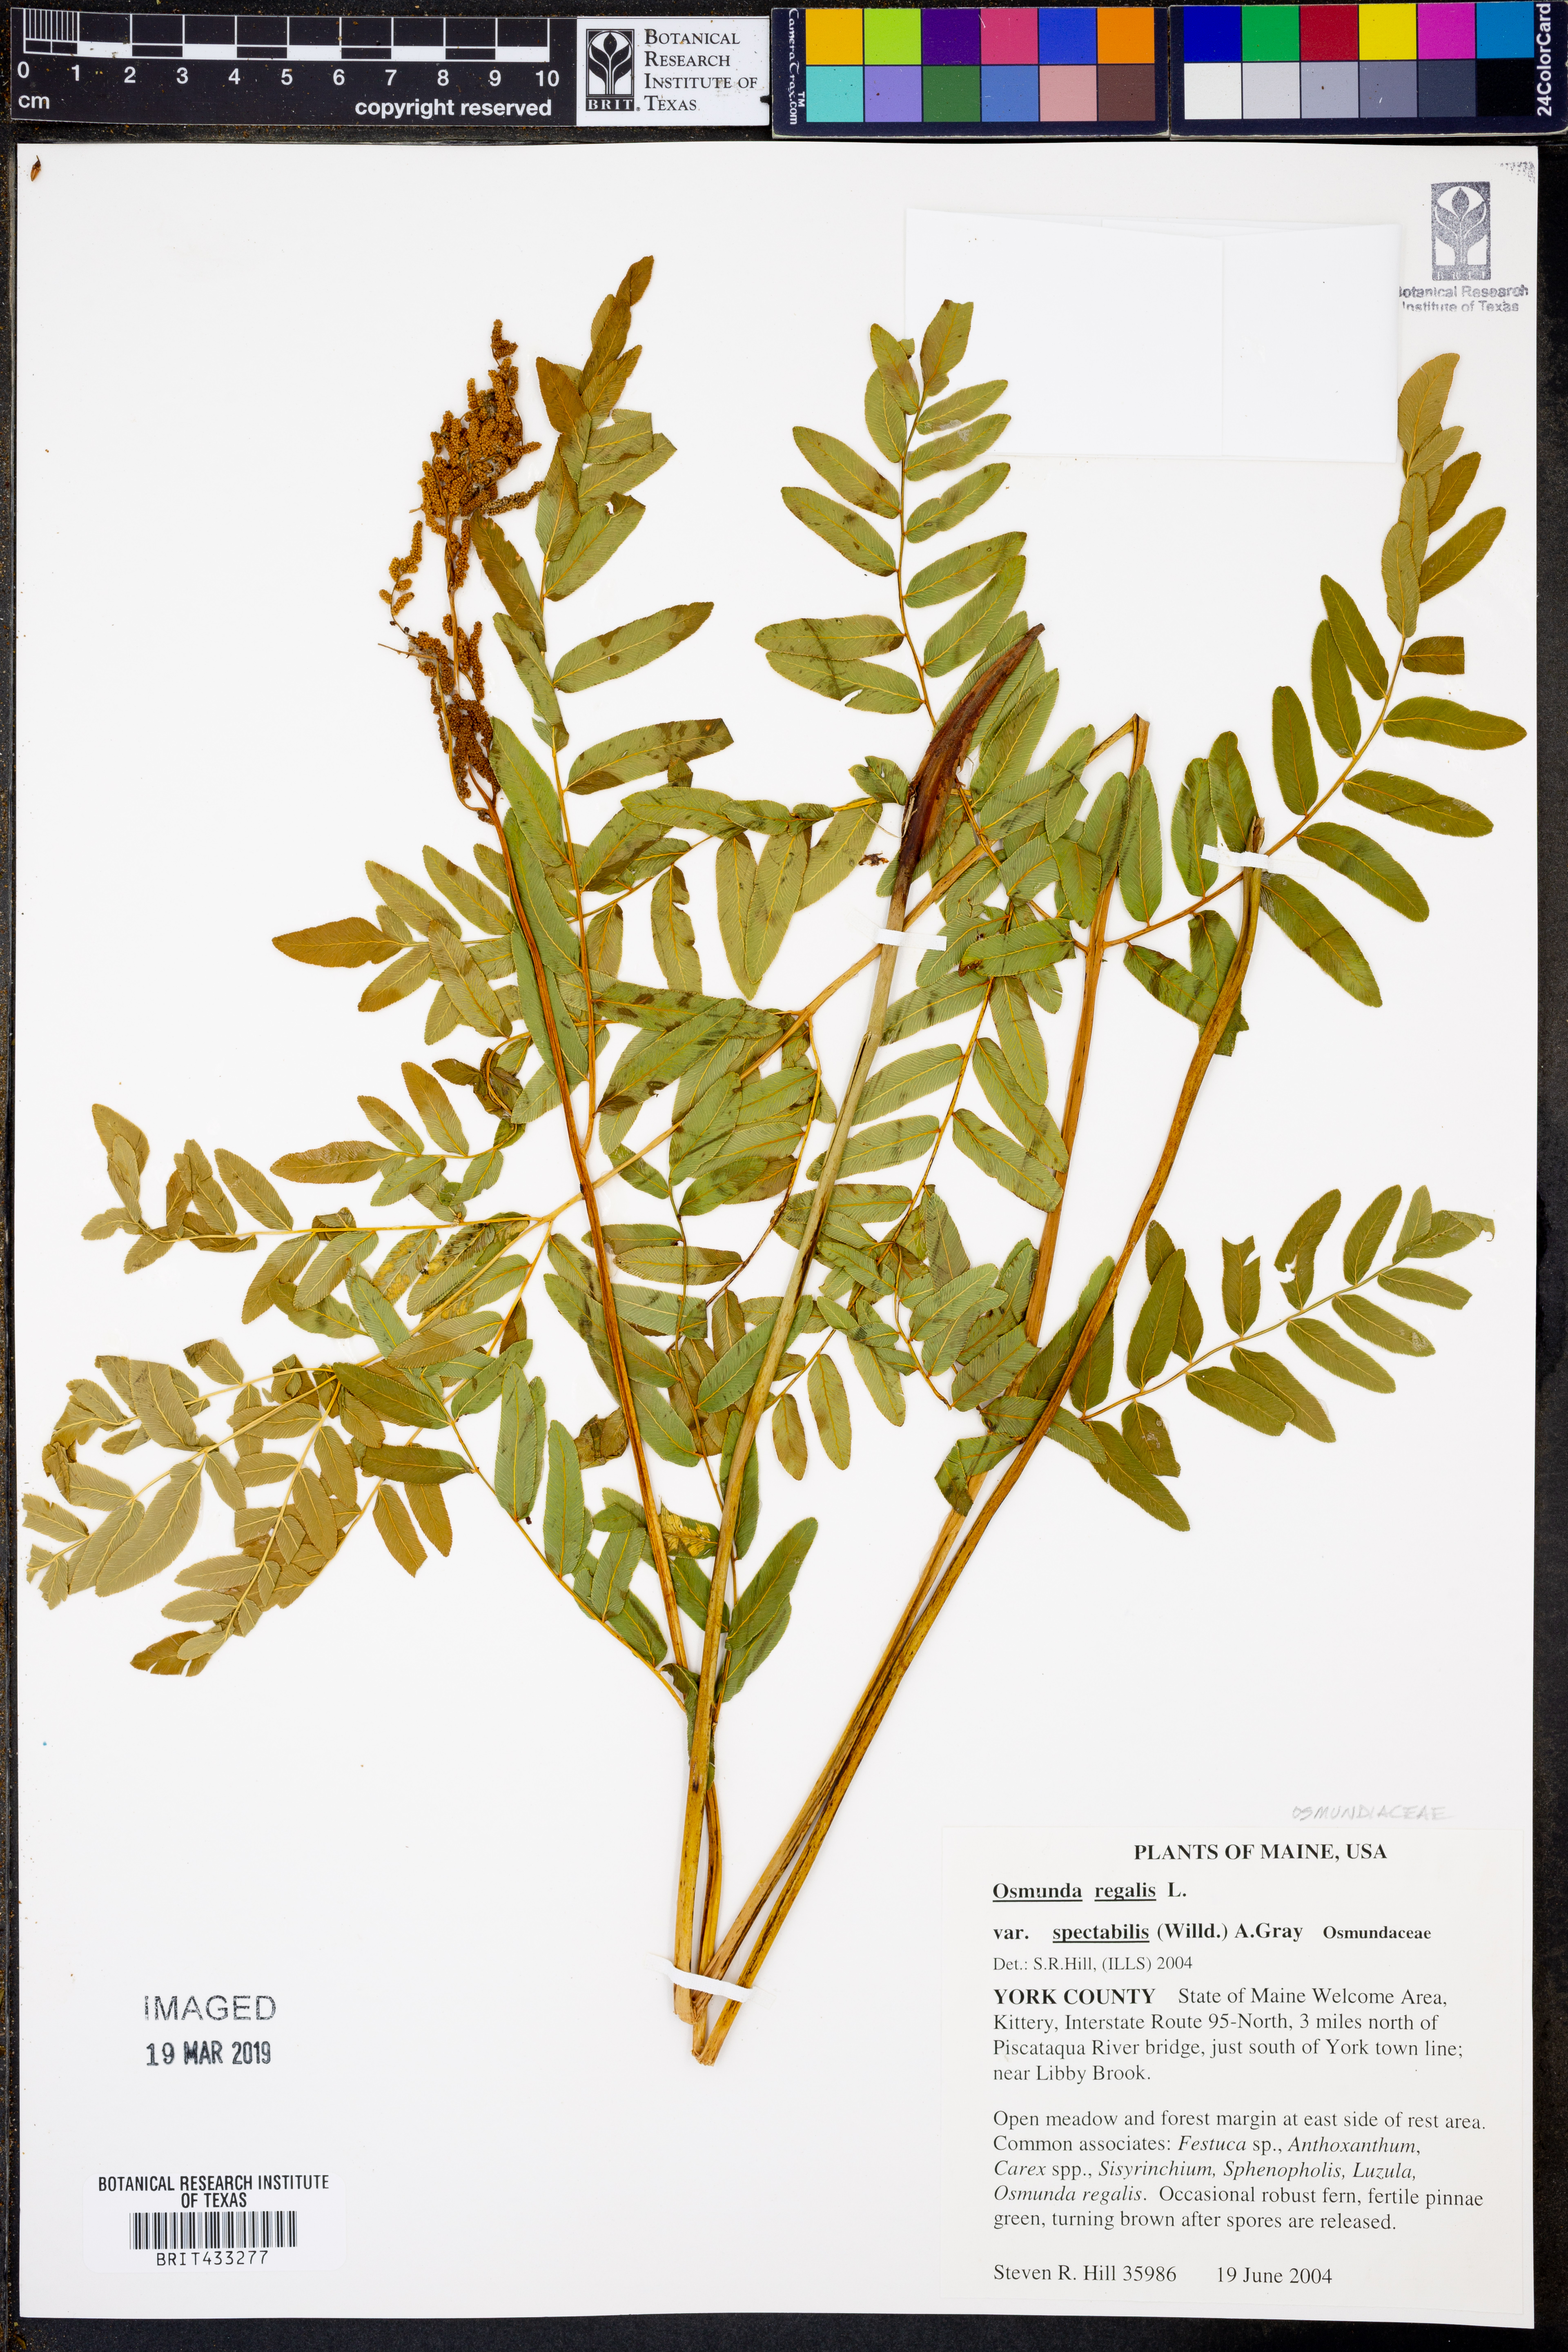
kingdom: Plantae
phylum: Tracheophyta
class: Polypodiopsida
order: Osmundales
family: Osmundaceae
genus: Osmunda
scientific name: Osmunda spectabilis
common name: American royal fern
